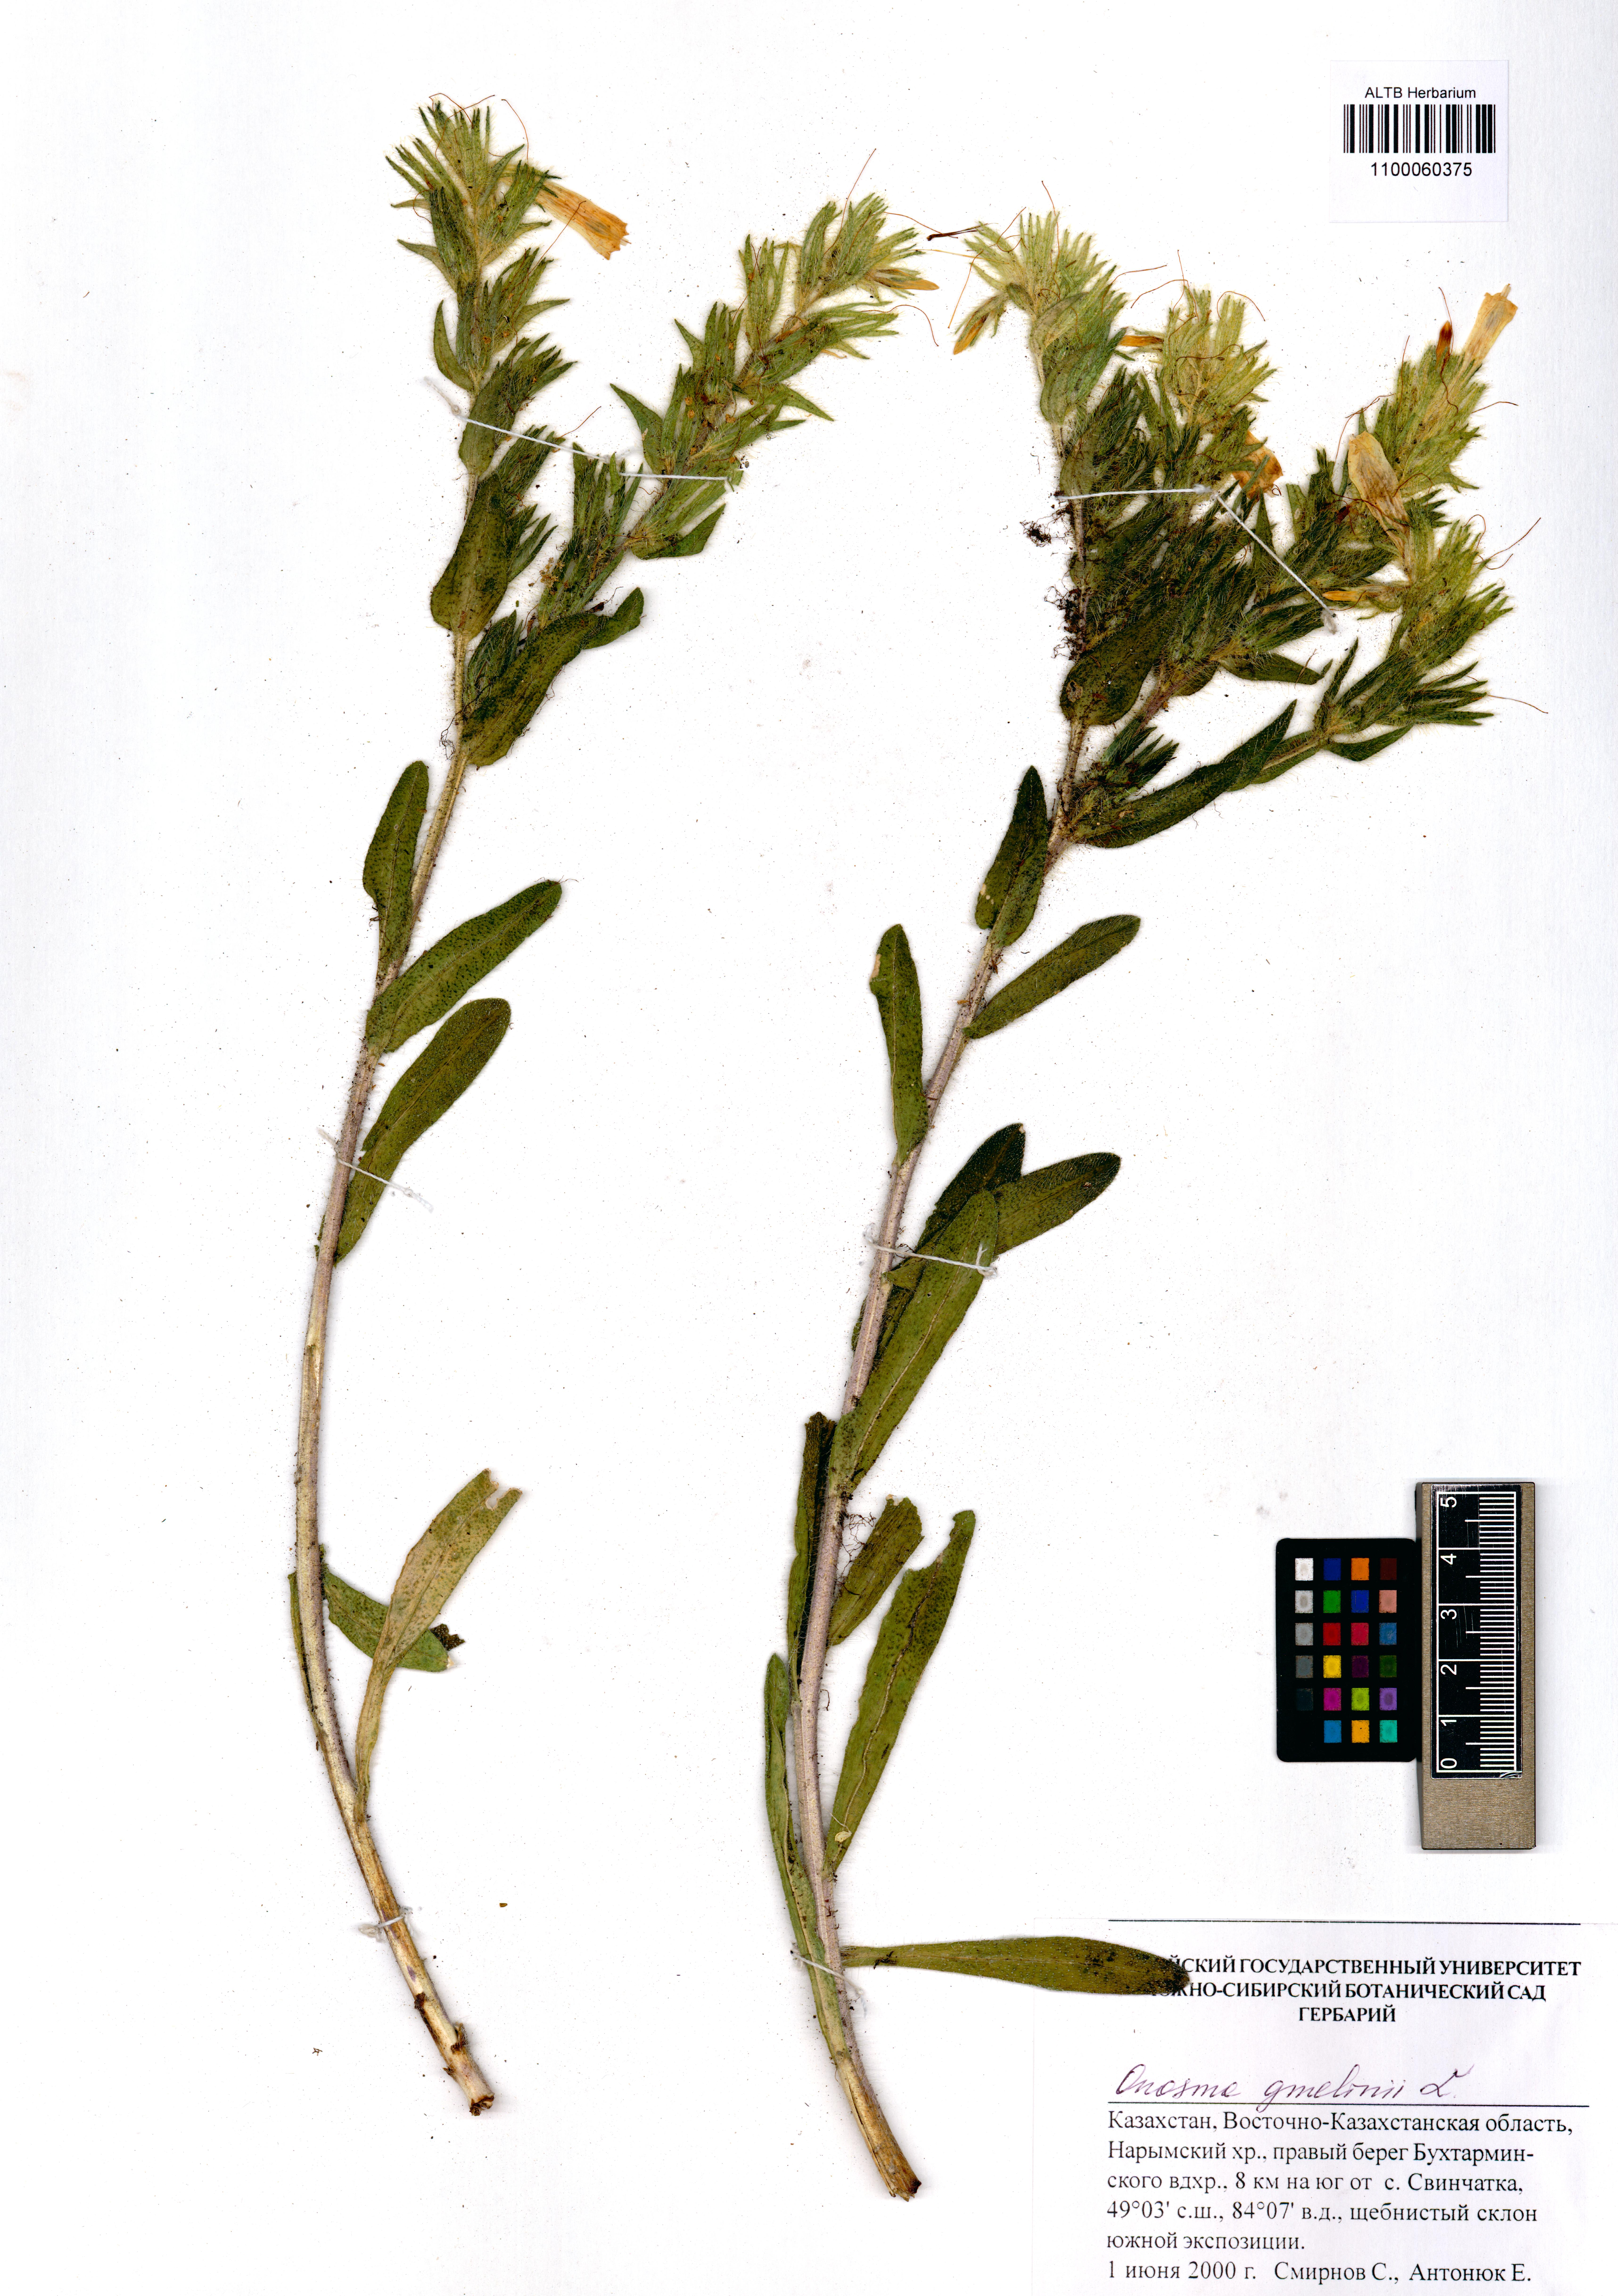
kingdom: Plantae
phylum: Tracheophyta
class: Magnoliopsida
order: Boraginales
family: Boraginaceae
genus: Onosma
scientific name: Onosma gmelinii
